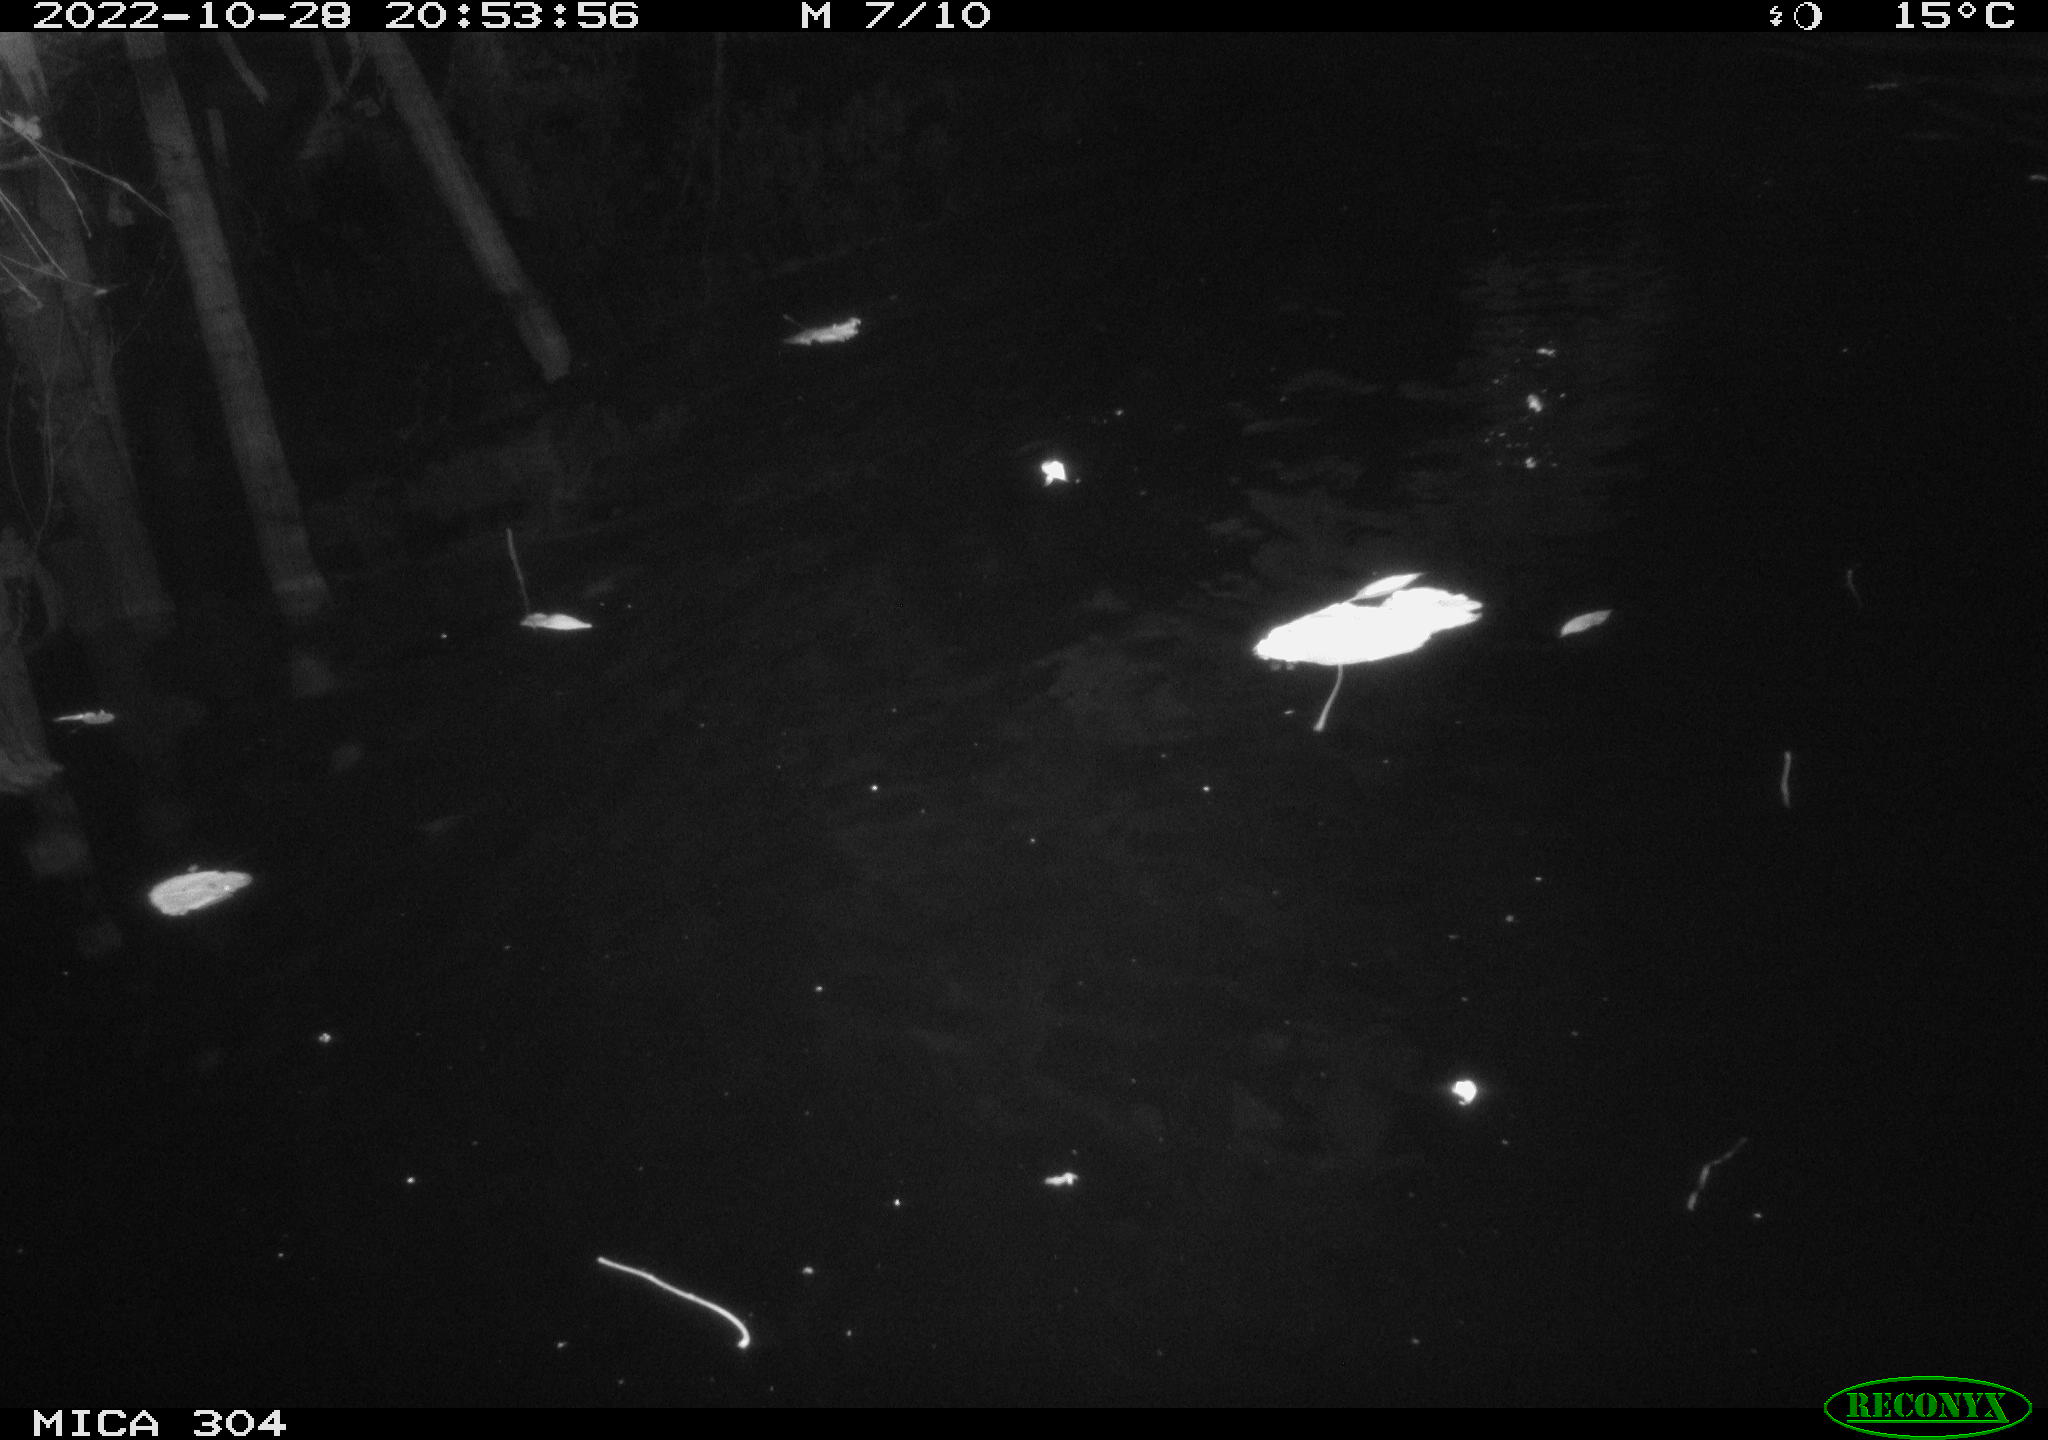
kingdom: Animalia
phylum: Chordata
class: Mammalia
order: Rodentia
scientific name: Rodentia
